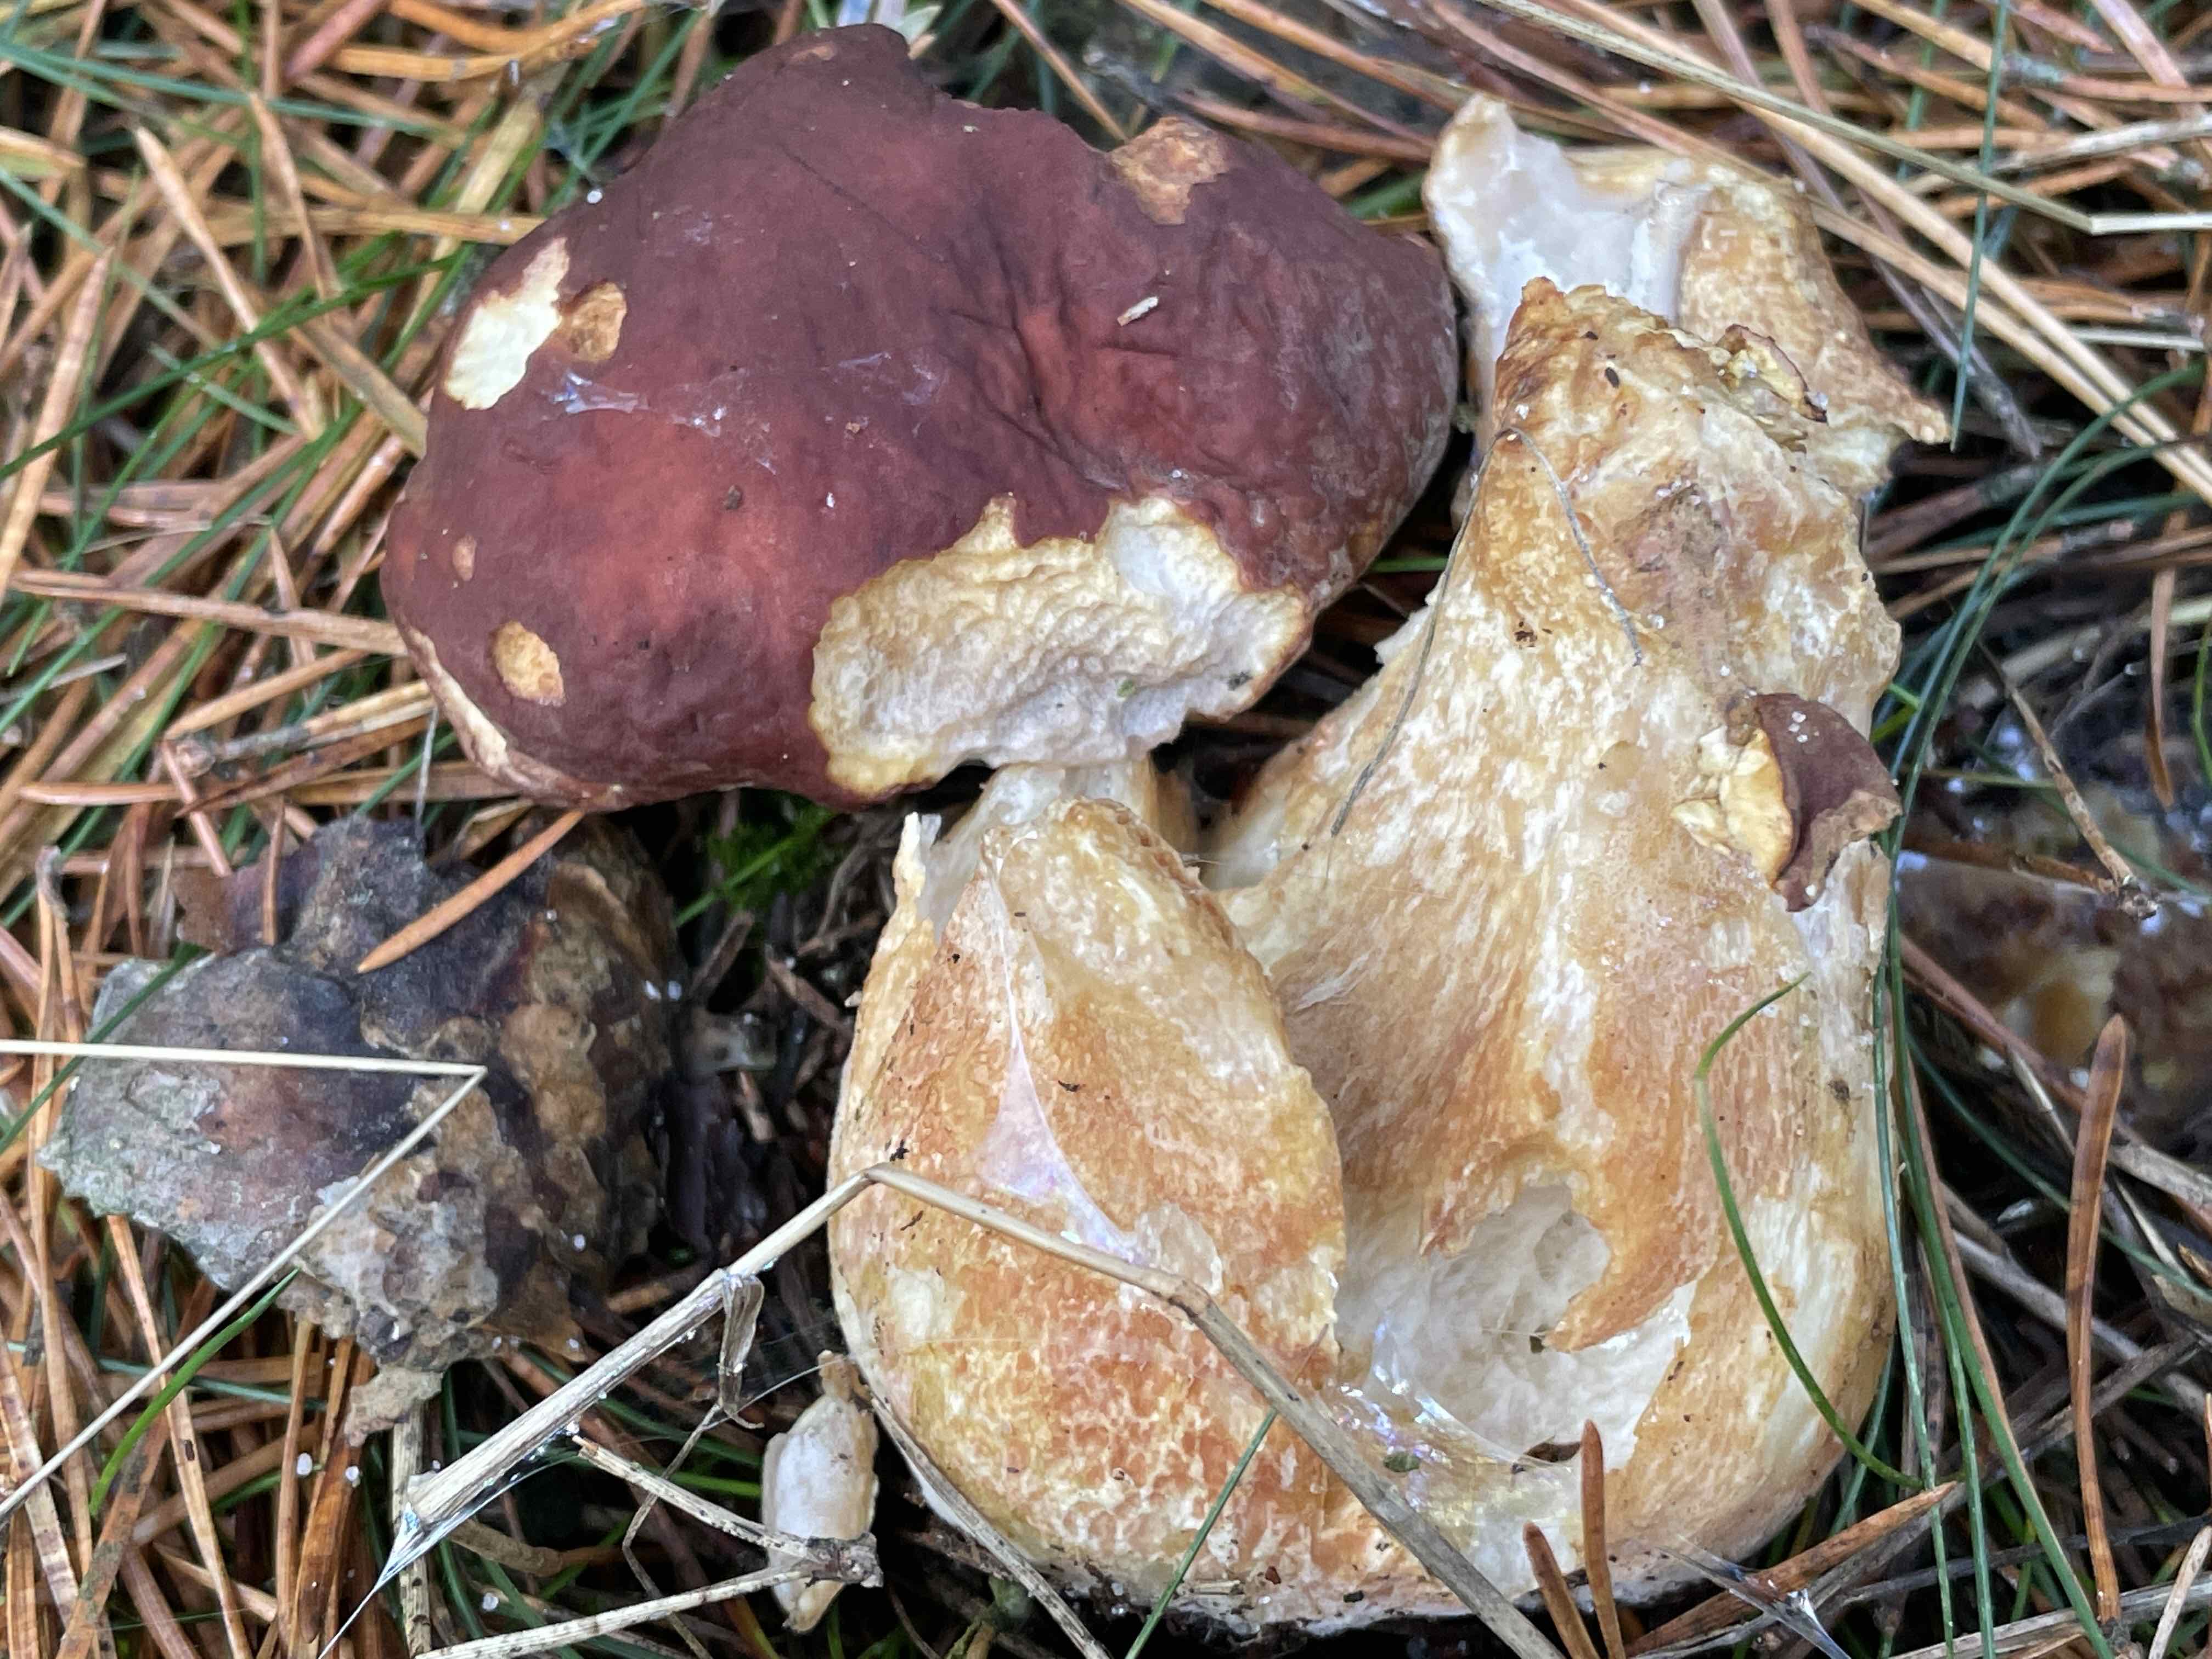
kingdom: Fungi
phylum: Basidiomycota
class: Agaricomycetes
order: Boletales
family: Boletaceae
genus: Boletus
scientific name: Boletus pinophilus
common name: rødbrun rørhat
